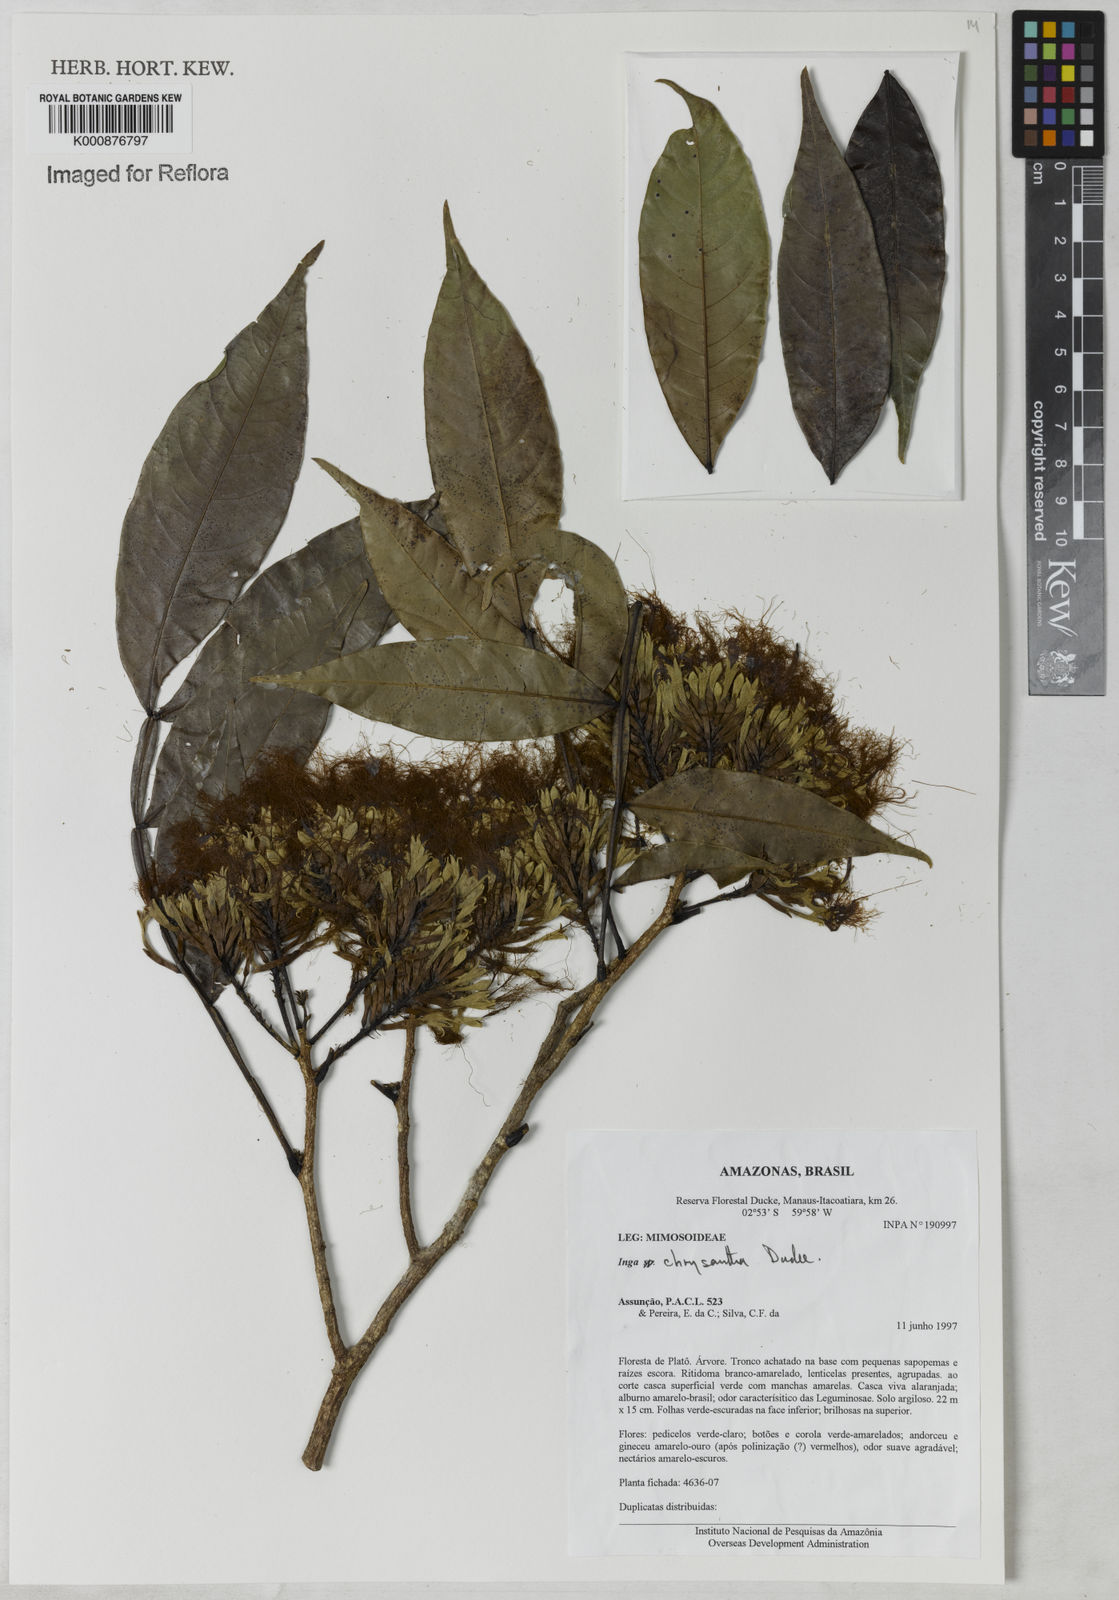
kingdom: Plantae
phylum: Tracheophyta
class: Magnoliopsida
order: Fabales
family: Fabaceae
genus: Inga
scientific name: Inga chrysantha
